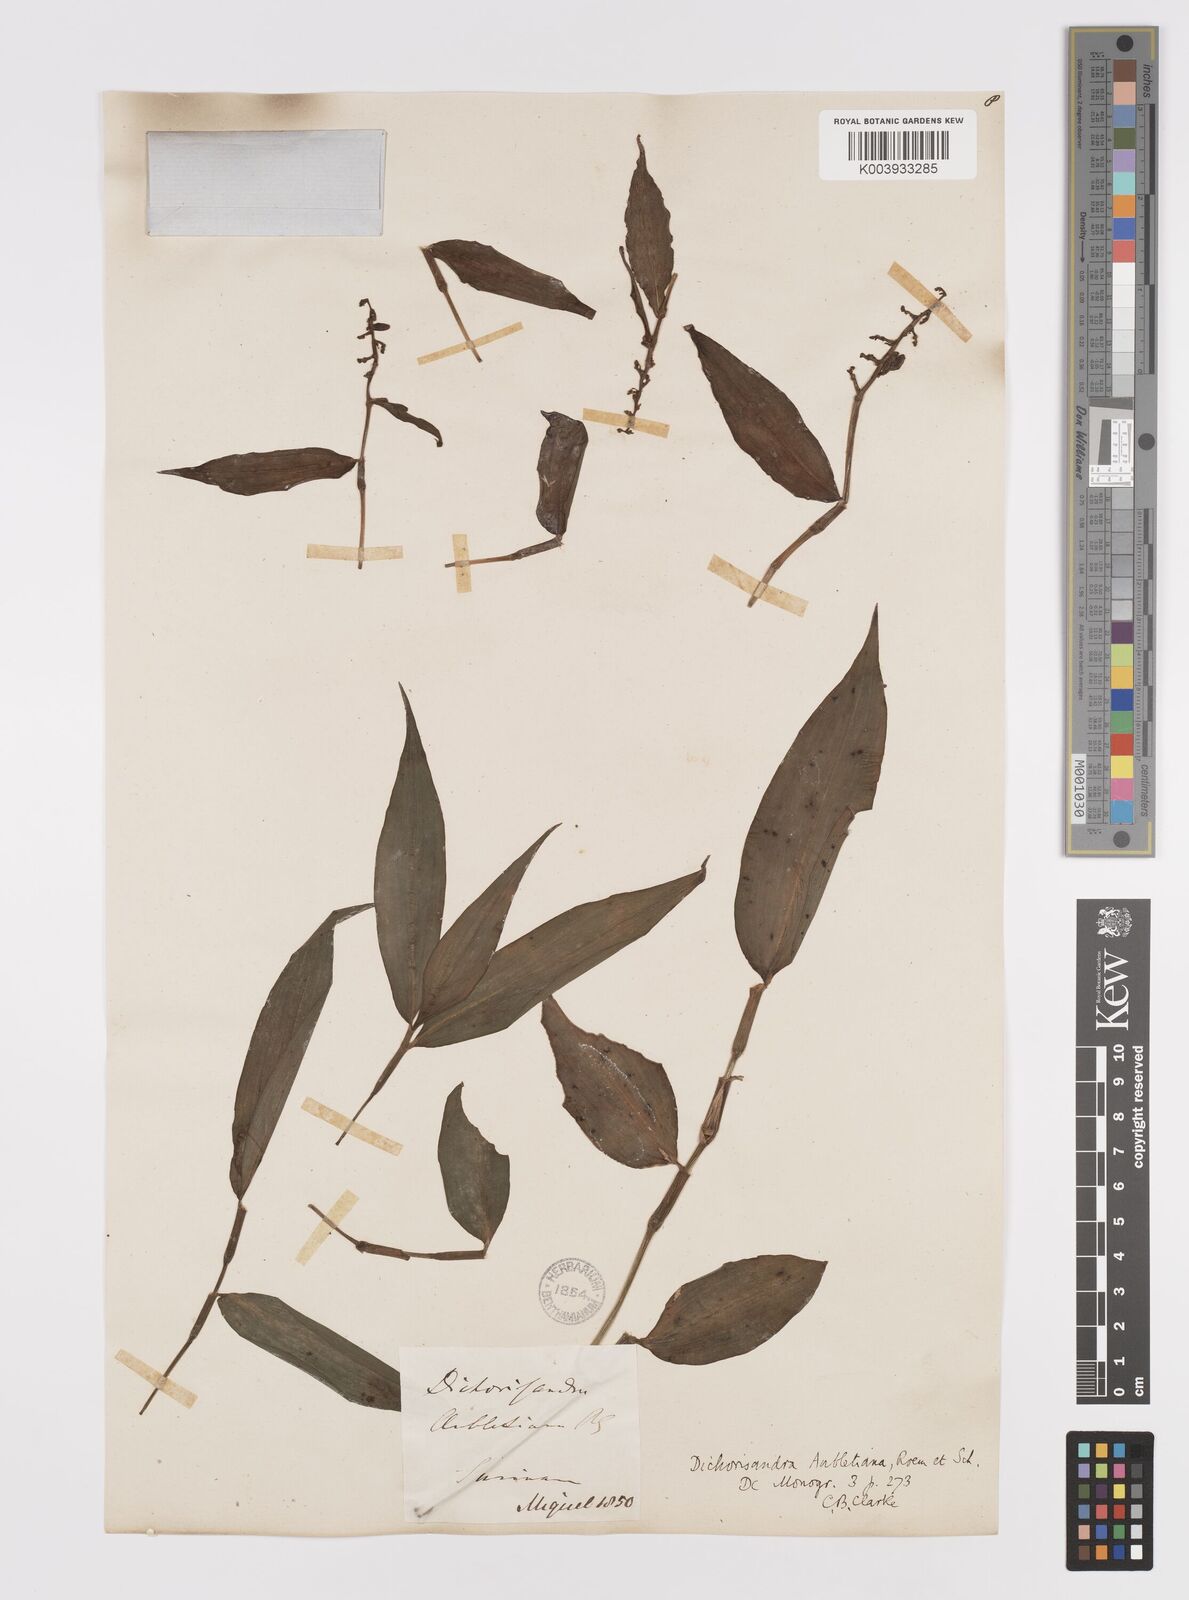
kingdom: Plantae
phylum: Tracheophyta
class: Liliopsida
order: Commelinales
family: Commelinaceae
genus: Dichorisandra
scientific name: Dichorisandra hexandra
